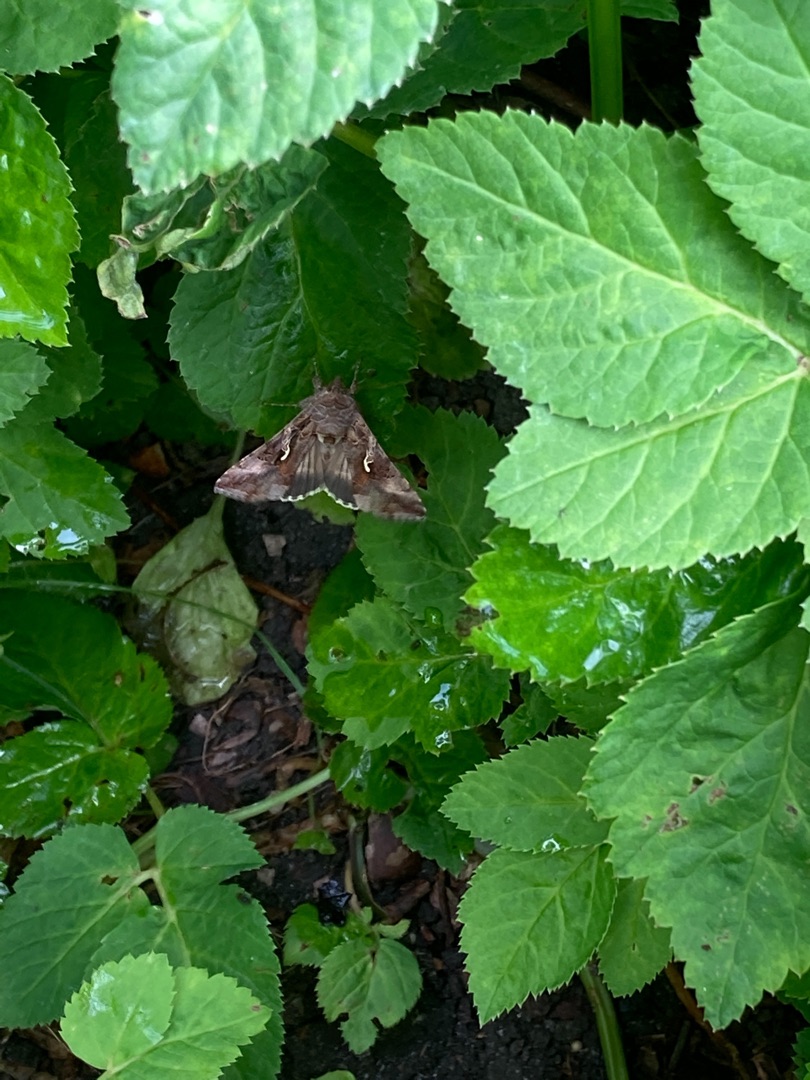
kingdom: Animalia
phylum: Arthropoda
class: Insecta
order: Lepidoptera
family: Noctuidae
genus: Autographa
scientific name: Autographa gamma
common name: Gammaugle
